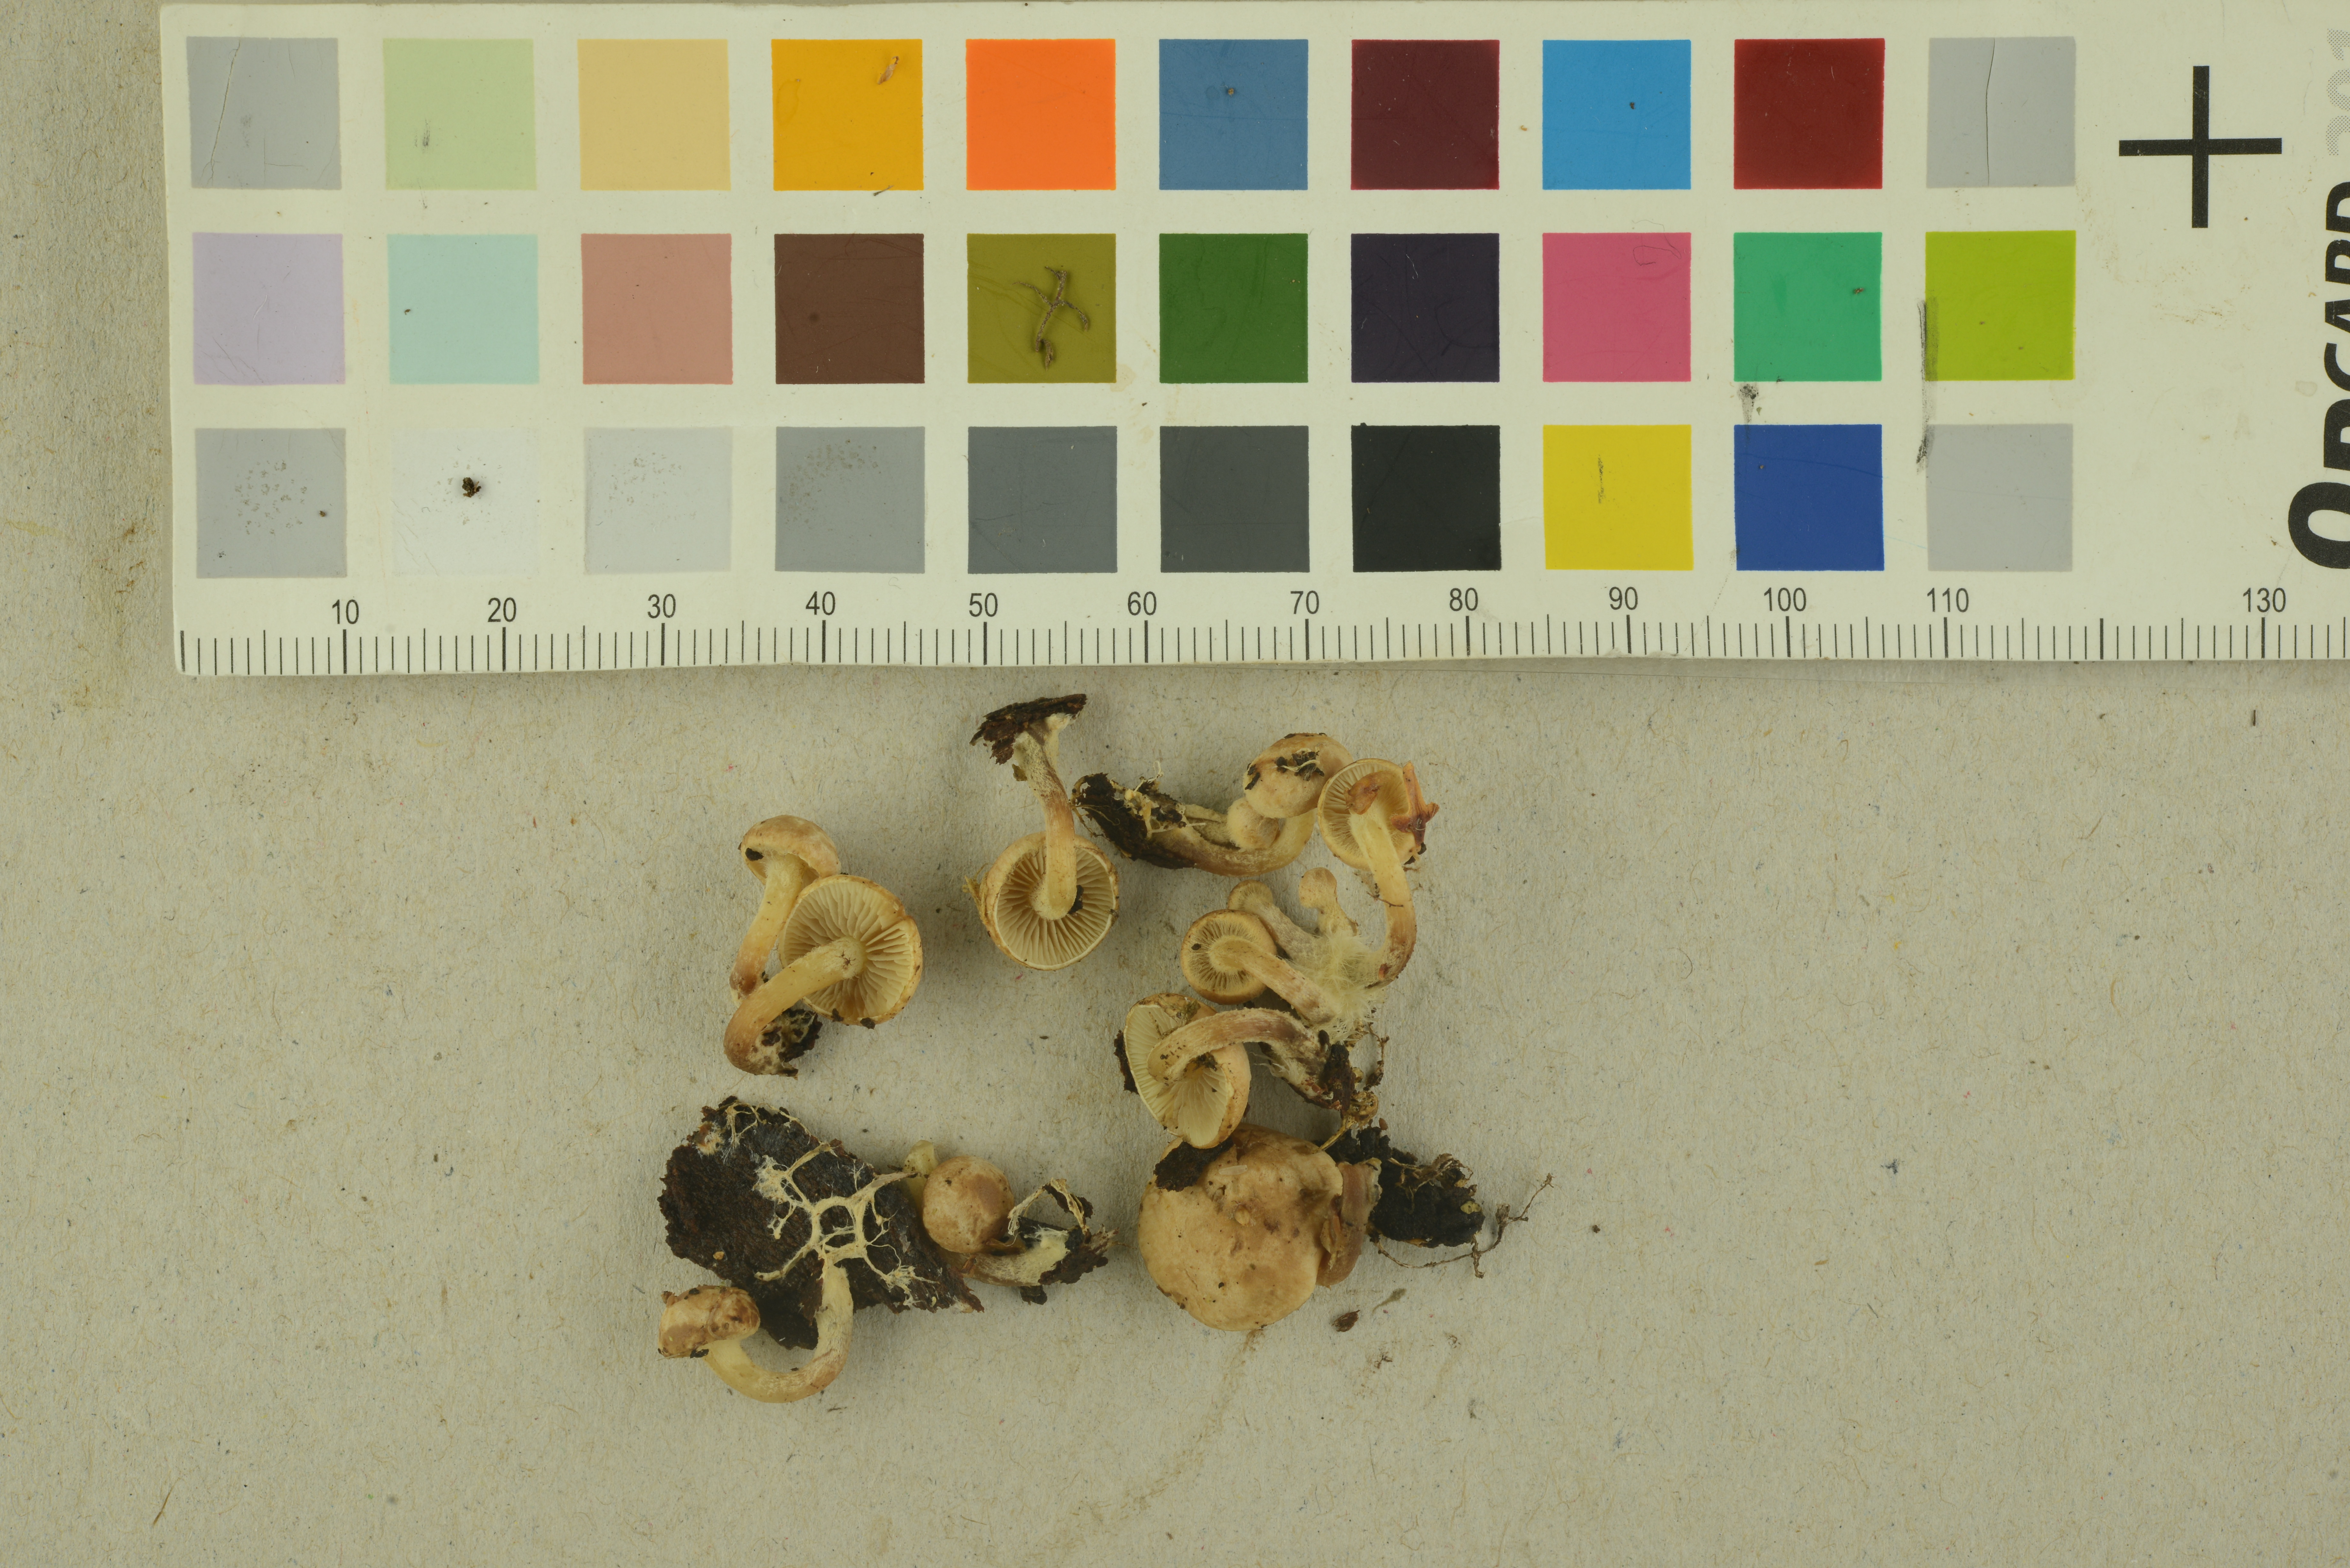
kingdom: Fungi
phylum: Basidiomycota
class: Agaricomycetes
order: Agaricales
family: Strophariaceae
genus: Pholiota
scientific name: Pholiota scamba
